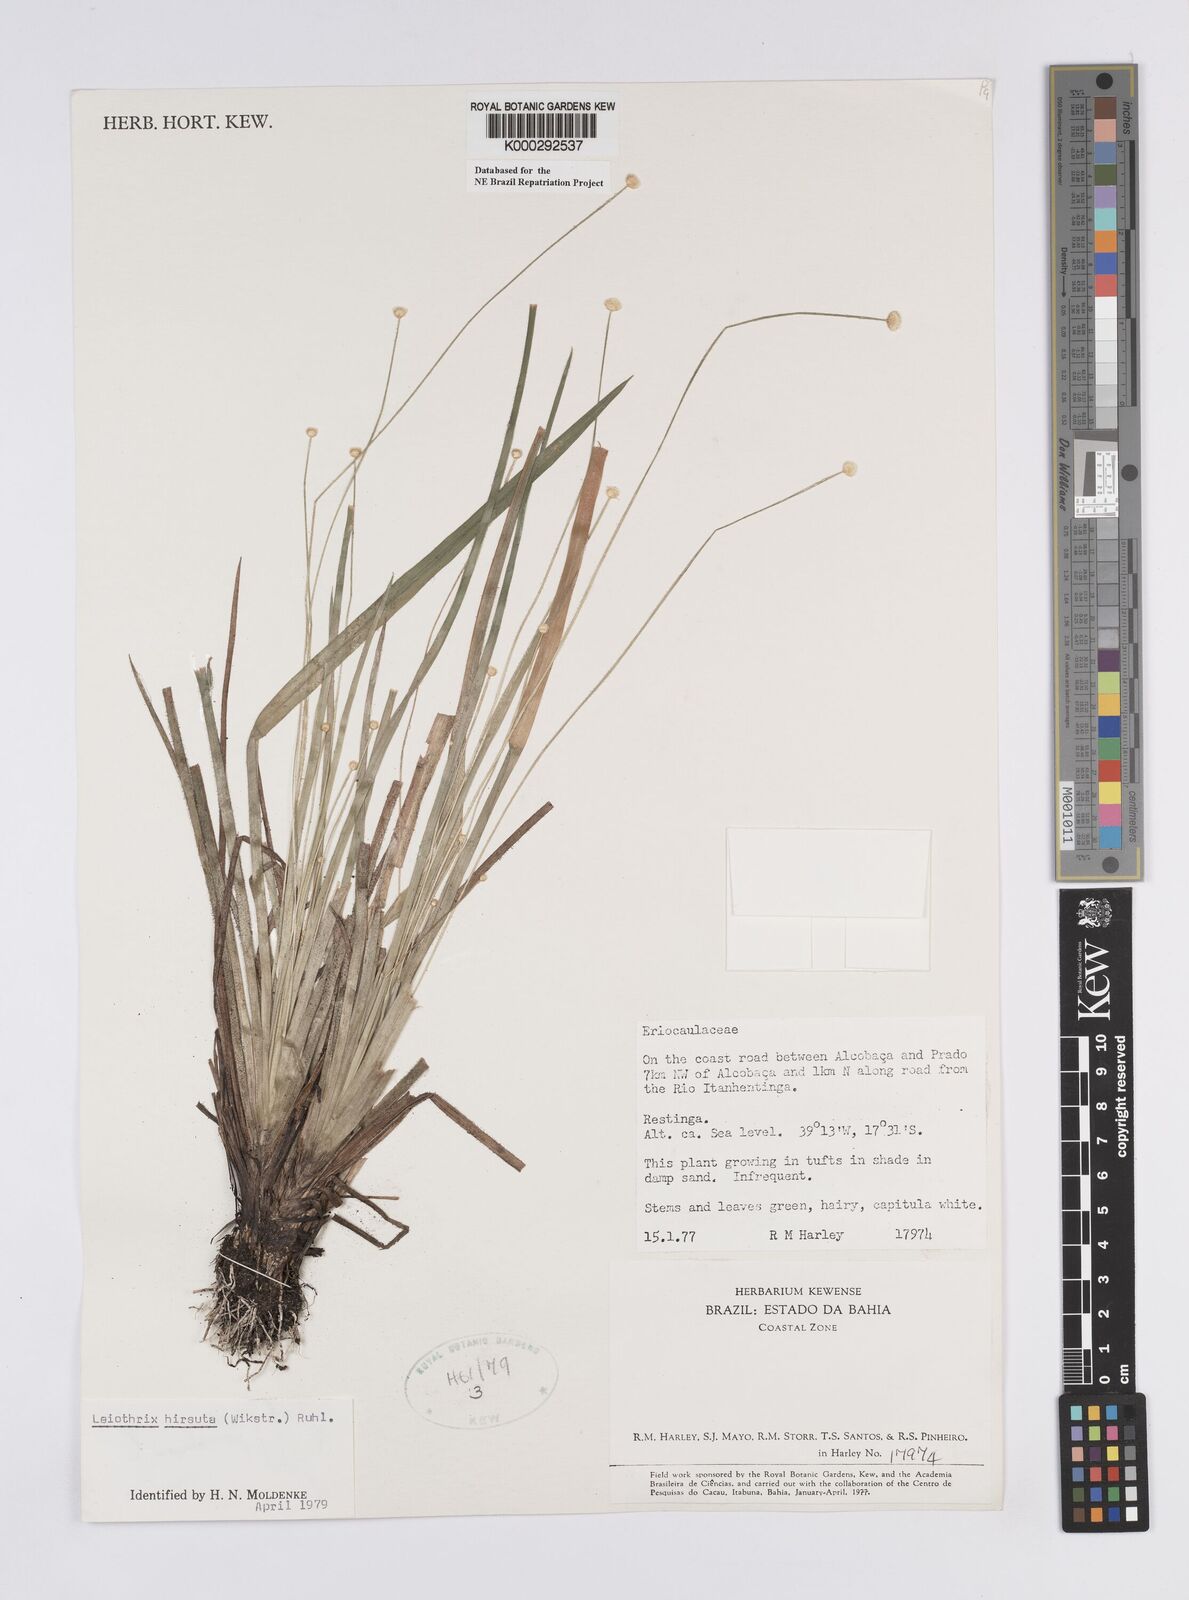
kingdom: Plantae
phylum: Tracheophyta
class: Liliopsida
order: Poales
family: Eriocaulaceae
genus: Leiothrix
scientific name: Leiothrix hirsuta
